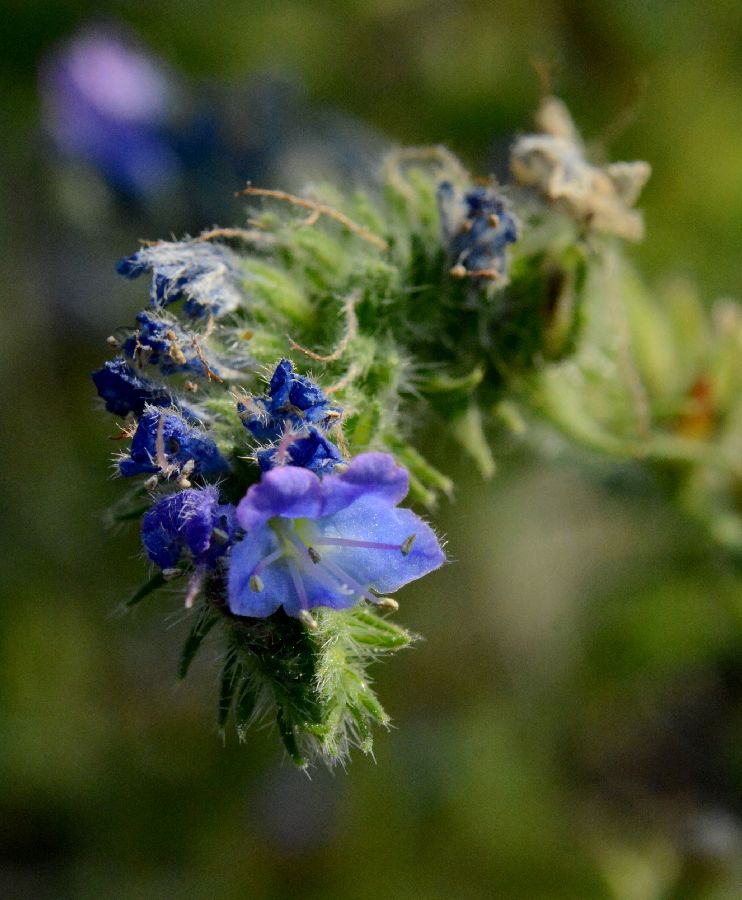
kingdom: Plantae
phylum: Tracheophyta
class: Magnoliopsida
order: Boraginales
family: Boraginaceae
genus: Echium
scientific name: Echium vulgare
